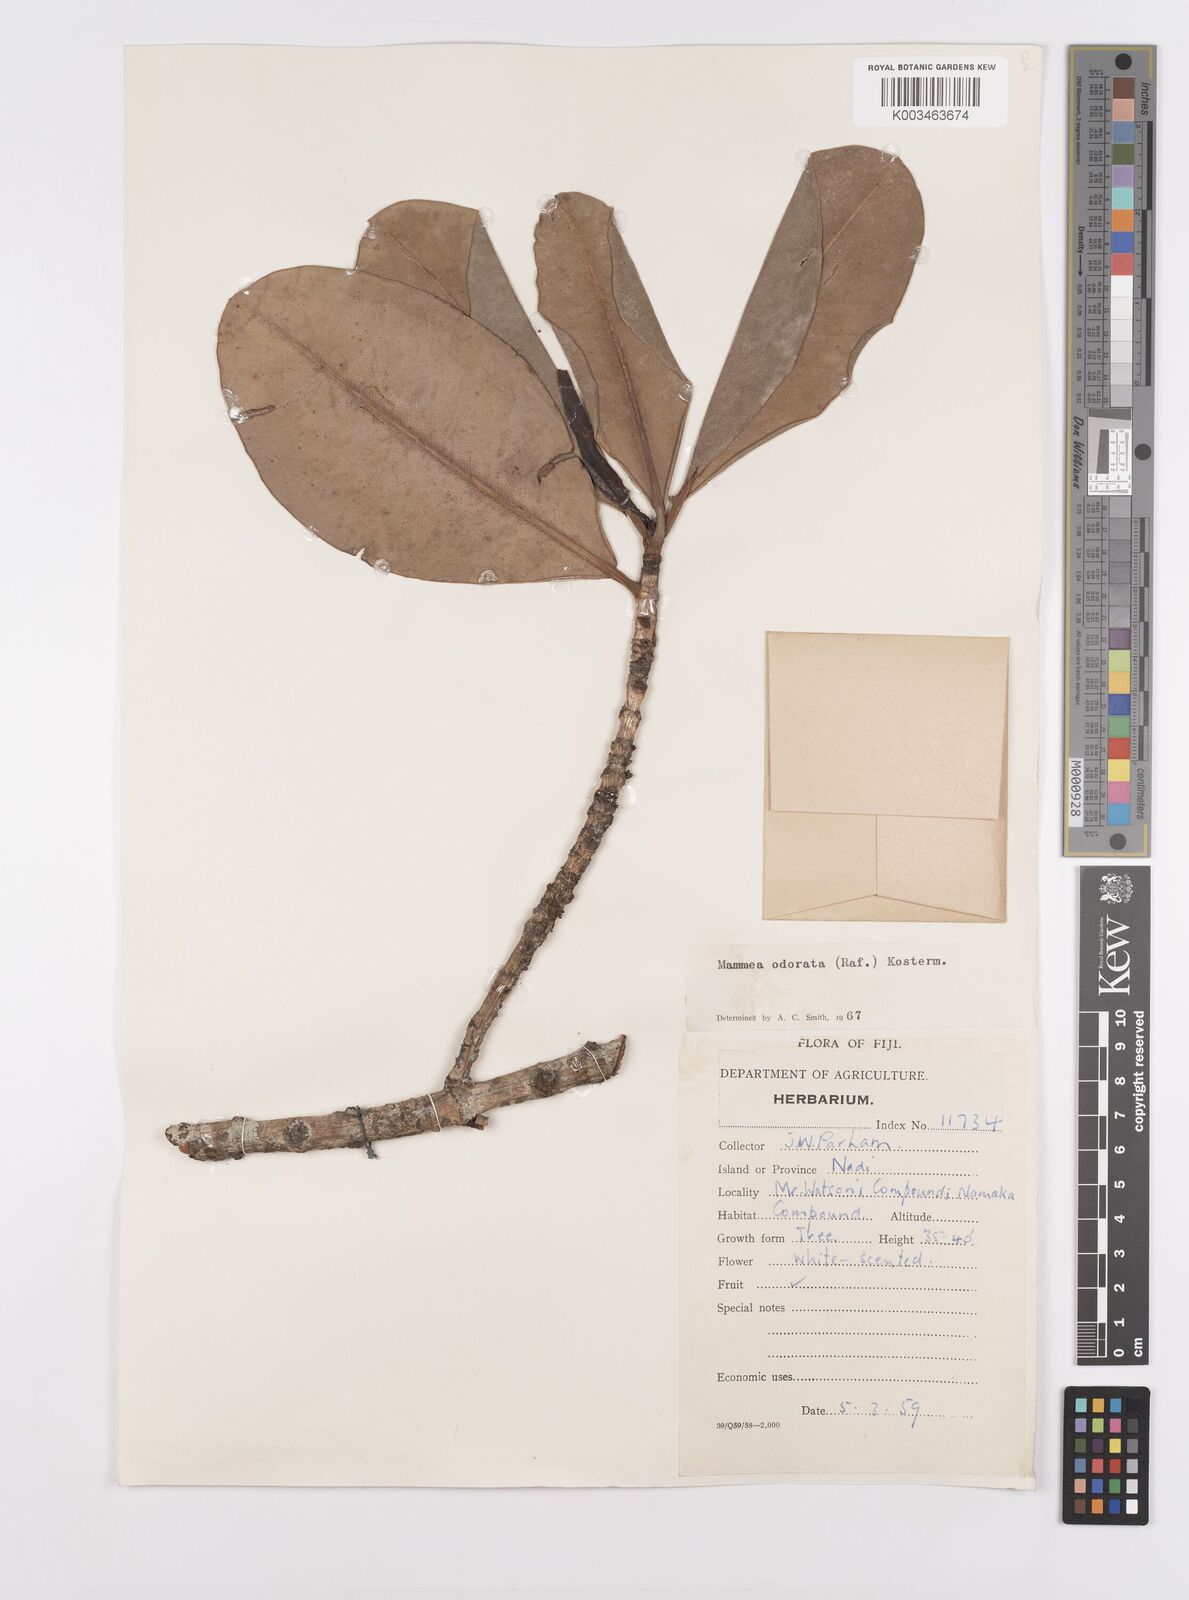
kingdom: Plantae
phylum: Tracheophyta
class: Magnoliopsida
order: Malpighiales
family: Calophyllaceae
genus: Mammea
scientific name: Mammea odorata
